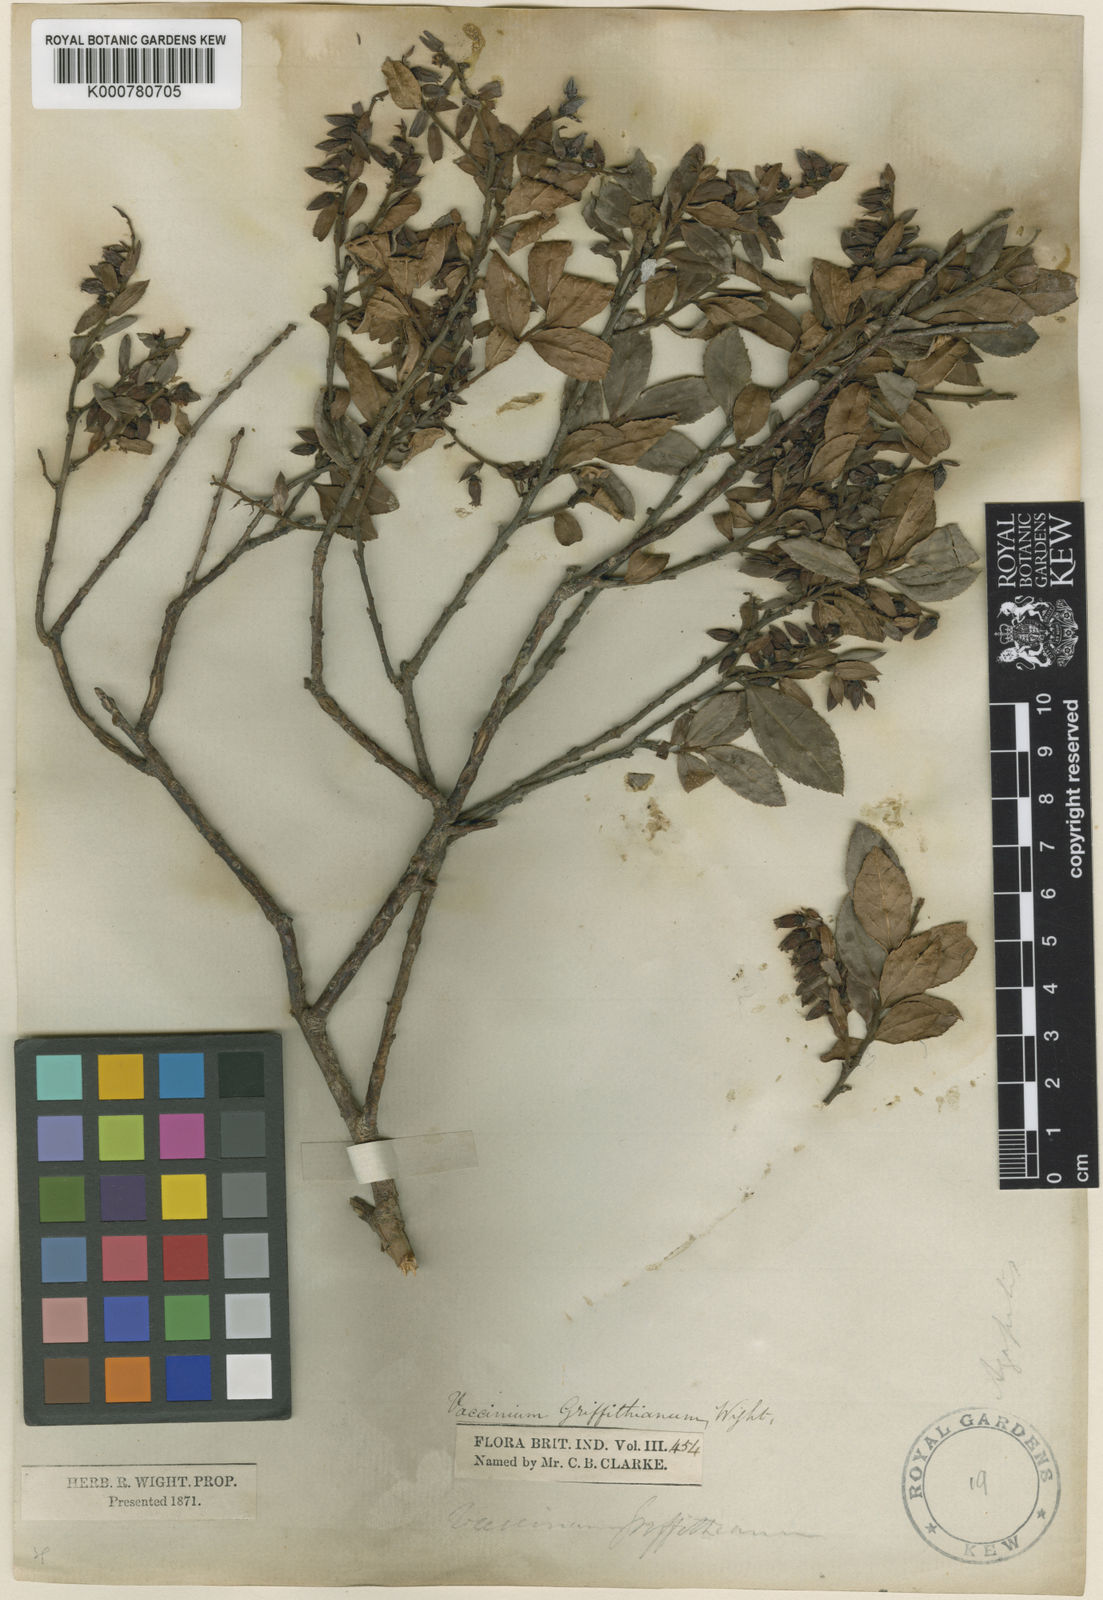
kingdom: Plantae
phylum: Tracheophyta
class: Magnoliopsida
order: Ericales
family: Ericaceae
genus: Vaccinium
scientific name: Vaccinium griffithianum
